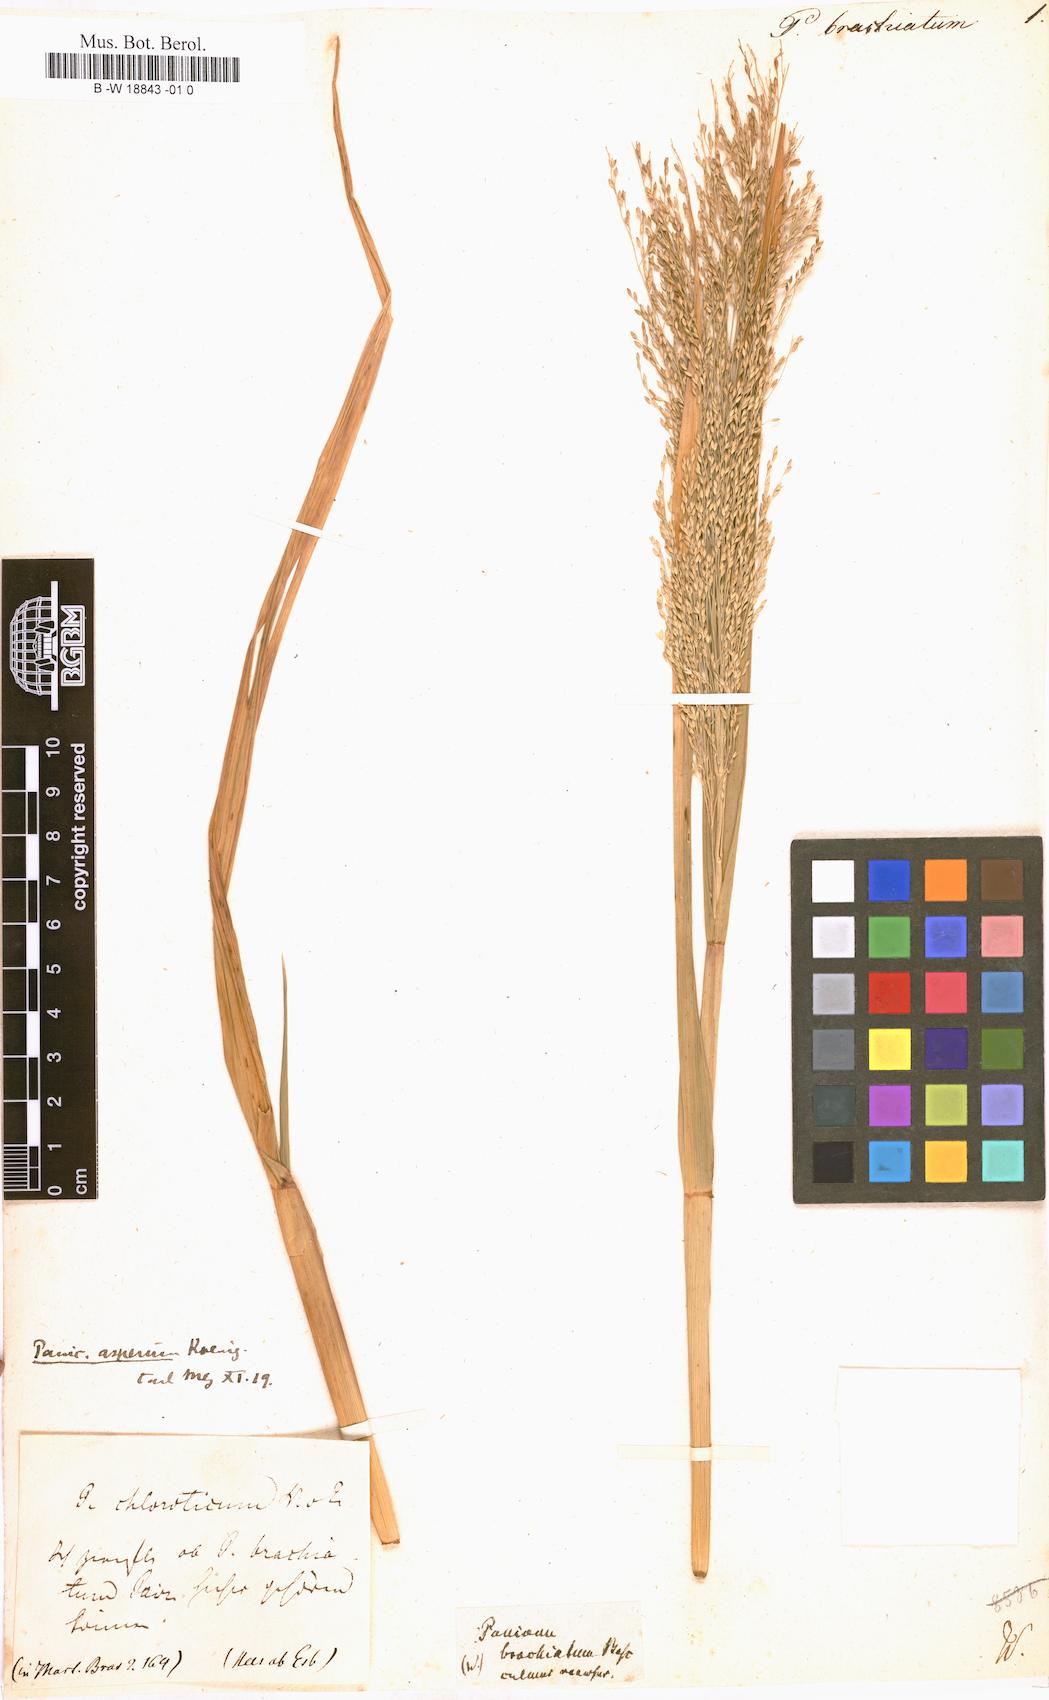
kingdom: Plantae
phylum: Tracheophyta
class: Liliopsida
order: Poales
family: Poaceae
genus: Setaria
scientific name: Setaria setosa
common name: West indies bristle grass
